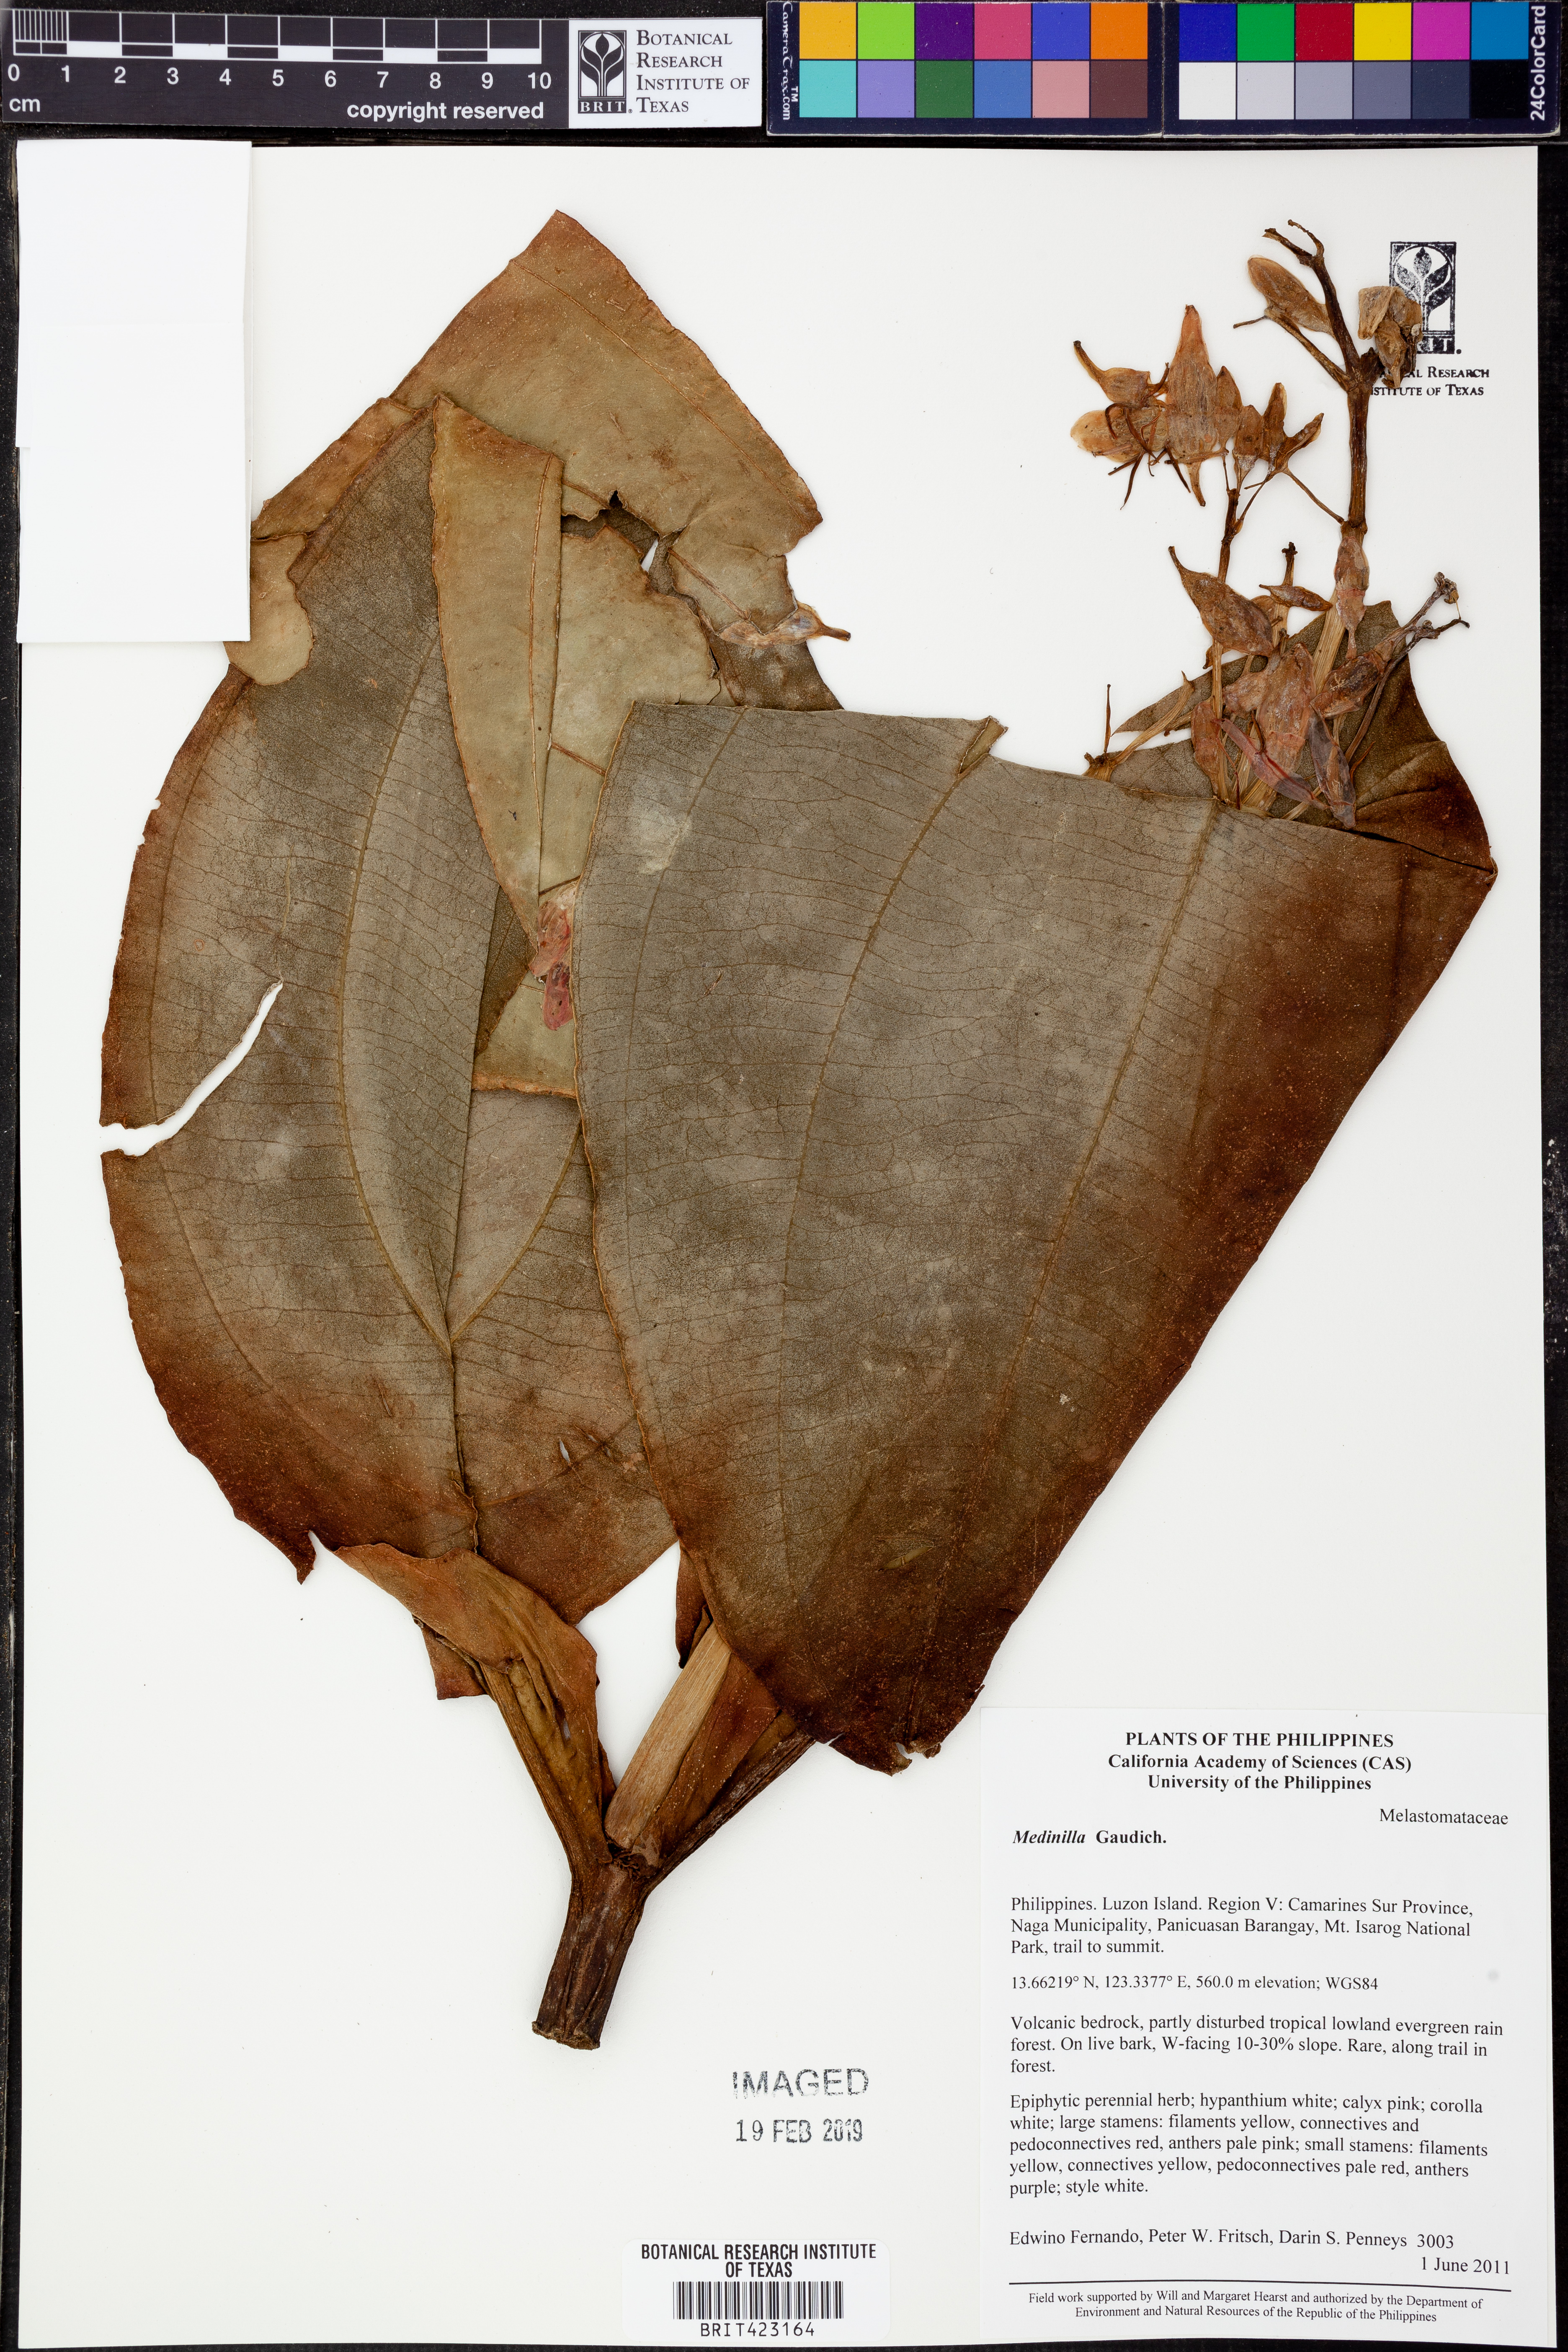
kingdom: Plantae
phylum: Tracheophyta
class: Magnoliopsida
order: Myrtales
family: Melastomataceae
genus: Medinilla
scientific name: Medinilla
